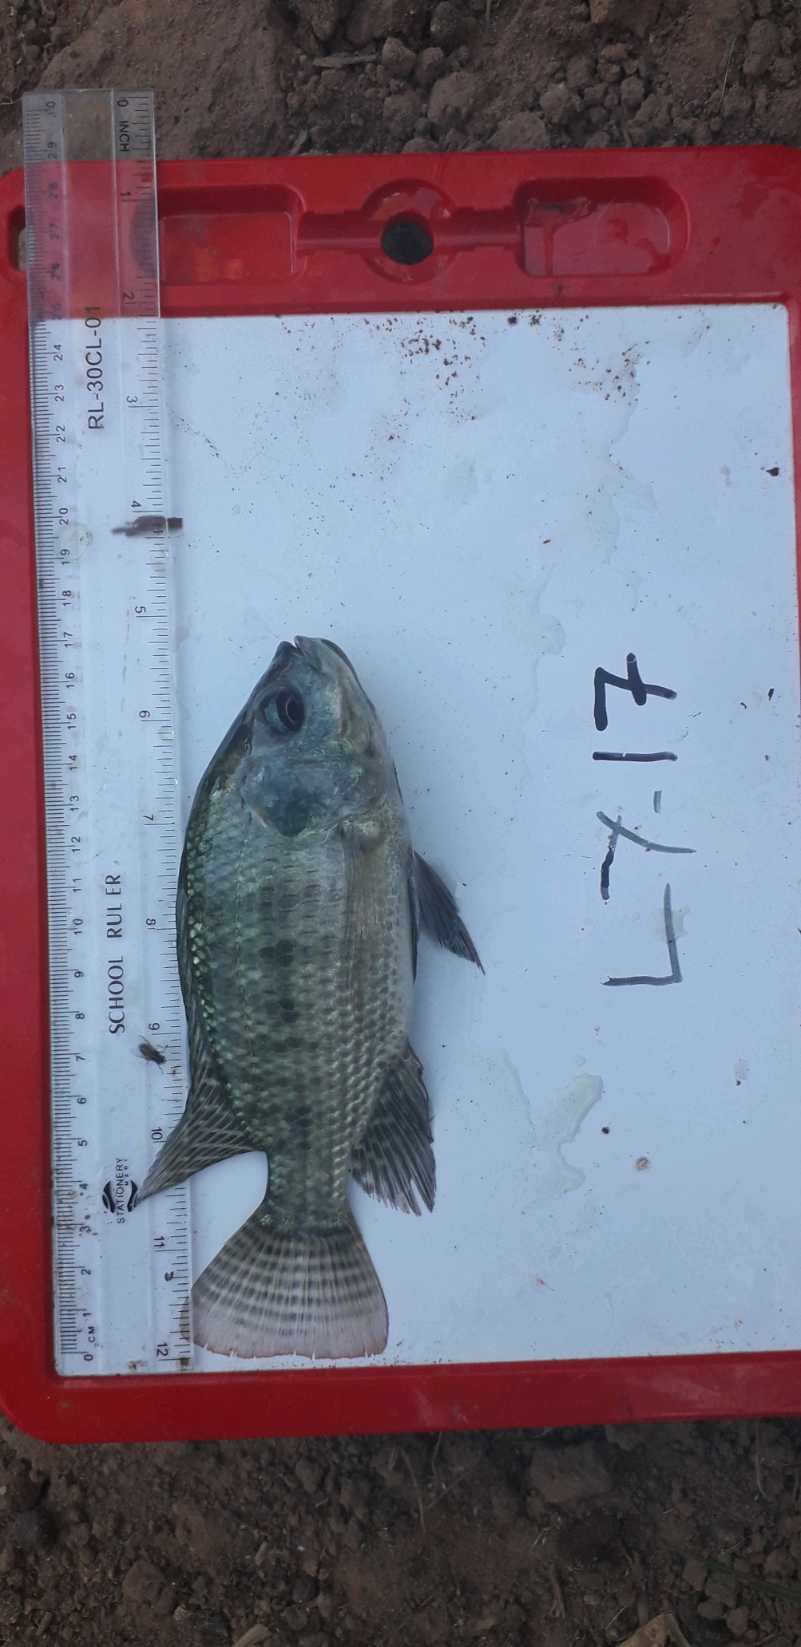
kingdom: Animalia
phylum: Chordata
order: Perciformes
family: Cichlidae
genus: Oreochromis
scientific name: Oreochromis niloticus
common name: Nile tilapia
